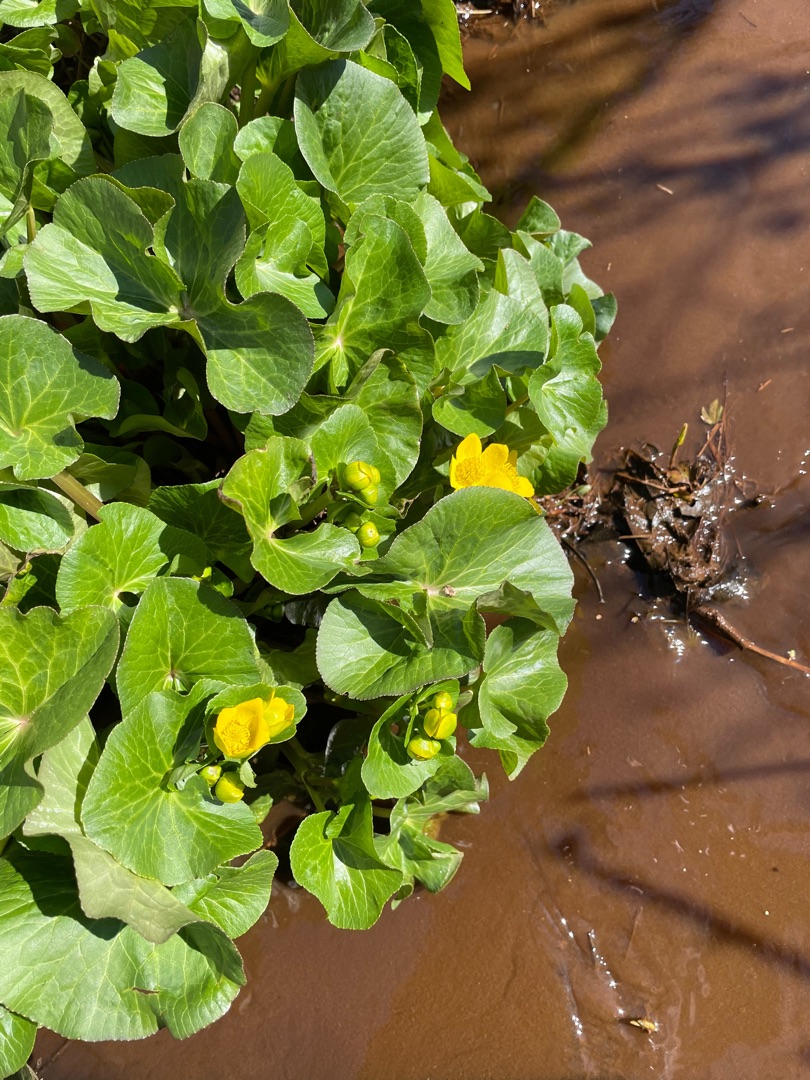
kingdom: Plantae
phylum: Tracheophyta
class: Magnoliopsida
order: Ranunculales
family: Ranunculaceae
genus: Caltha
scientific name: Caltha palustris
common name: Eng-kabbeleje
